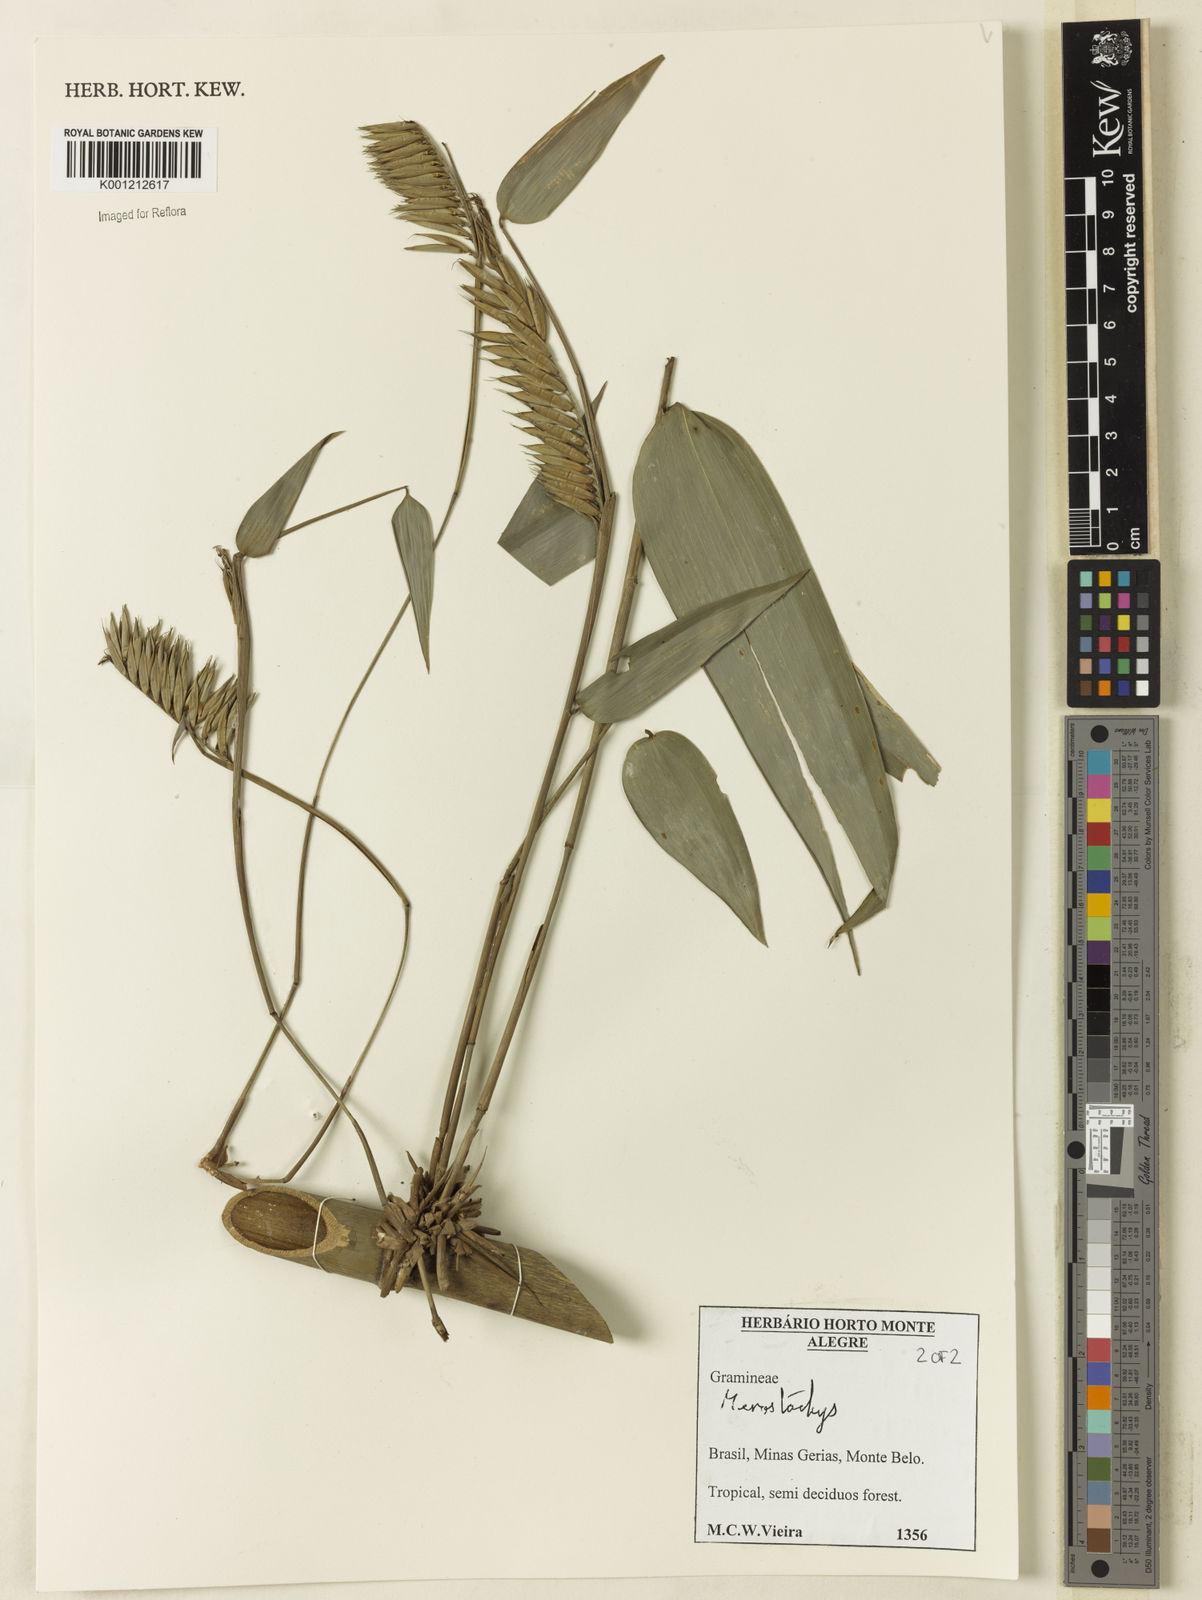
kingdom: Plantae
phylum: Tracheophyta
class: Liliopsida
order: Poales
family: Poaceae
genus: Merostachys
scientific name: Merostachys
